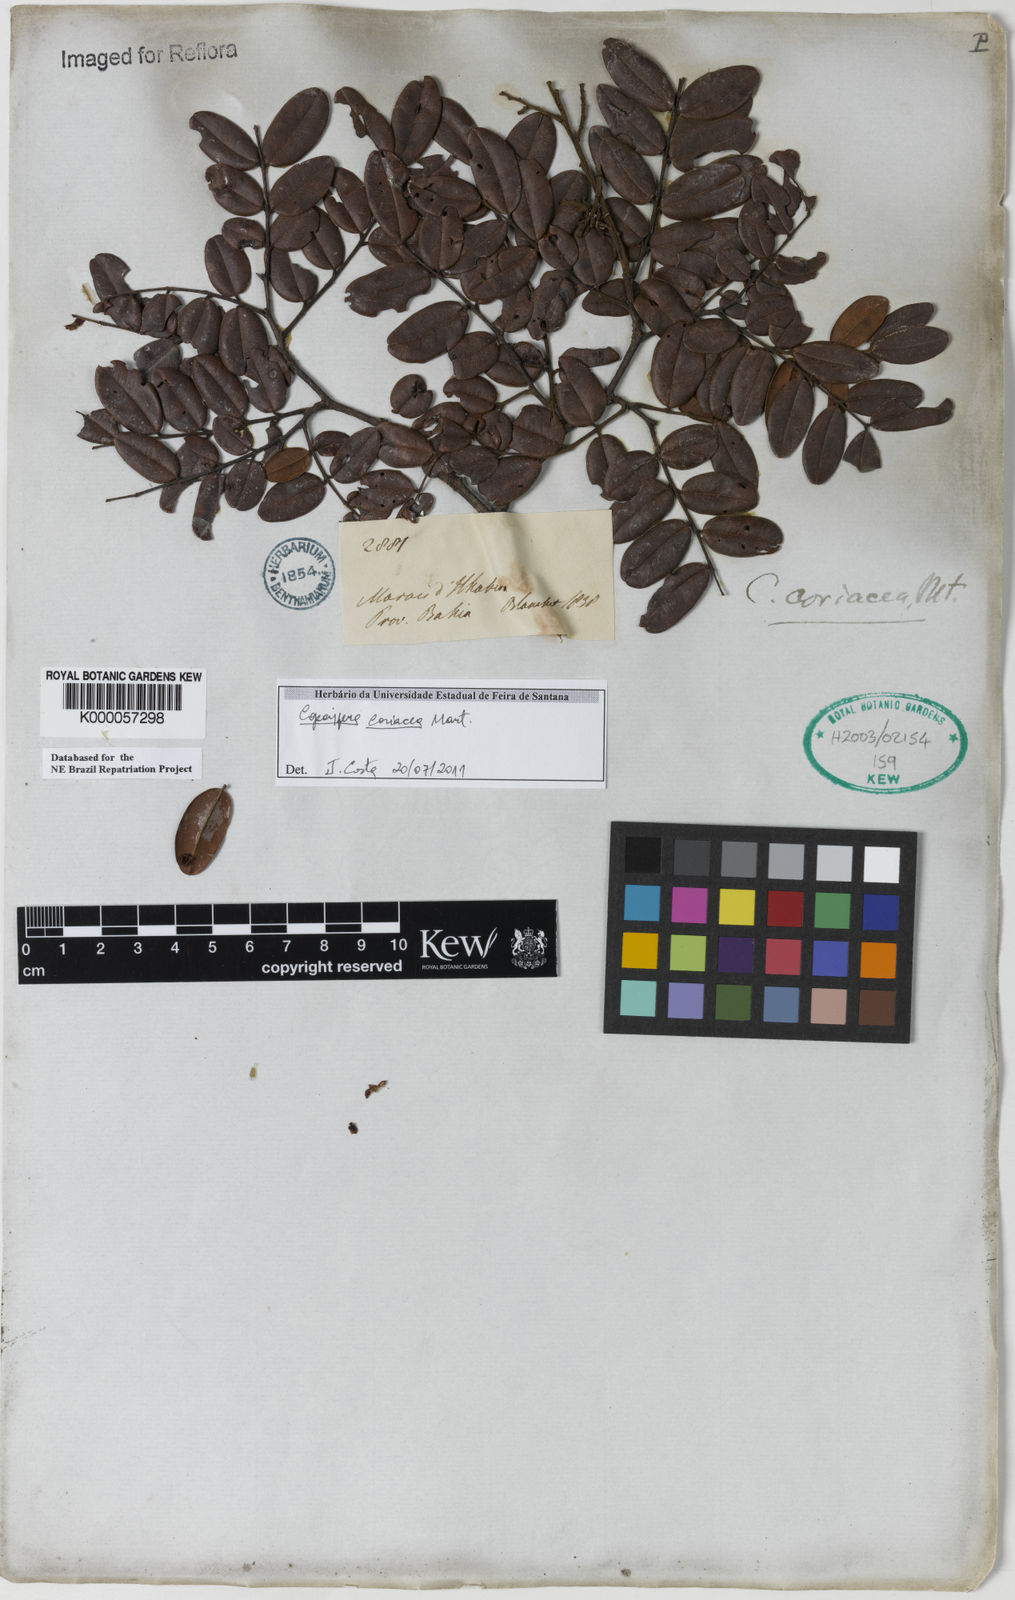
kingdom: Plantae
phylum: Tracheophyta
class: Magnoliopsida
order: Fabales
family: Fabaceae
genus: Copaifera
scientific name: Copaifera coriacea
